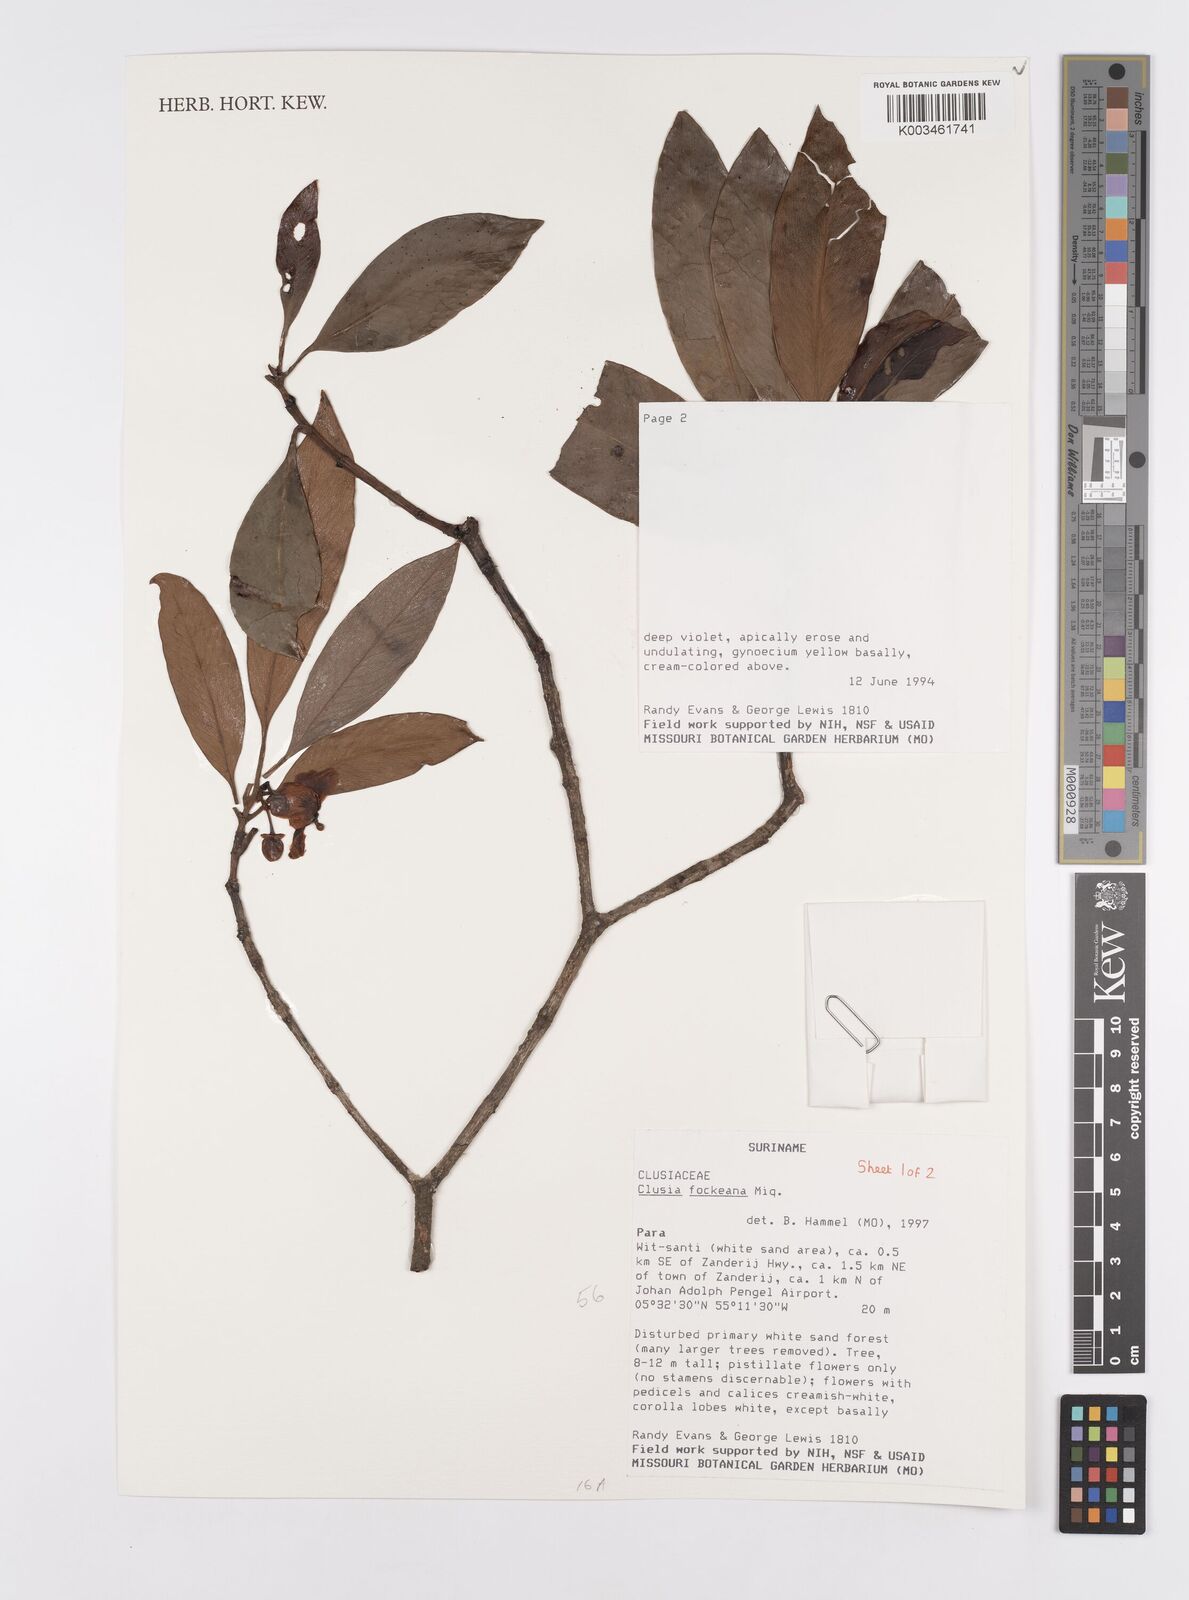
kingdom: Plantae
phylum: Tracheophyta
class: Magnoliopsida
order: Malpighiales
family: Clusiaceae
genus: Clusia
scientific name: Clusia fockeana
